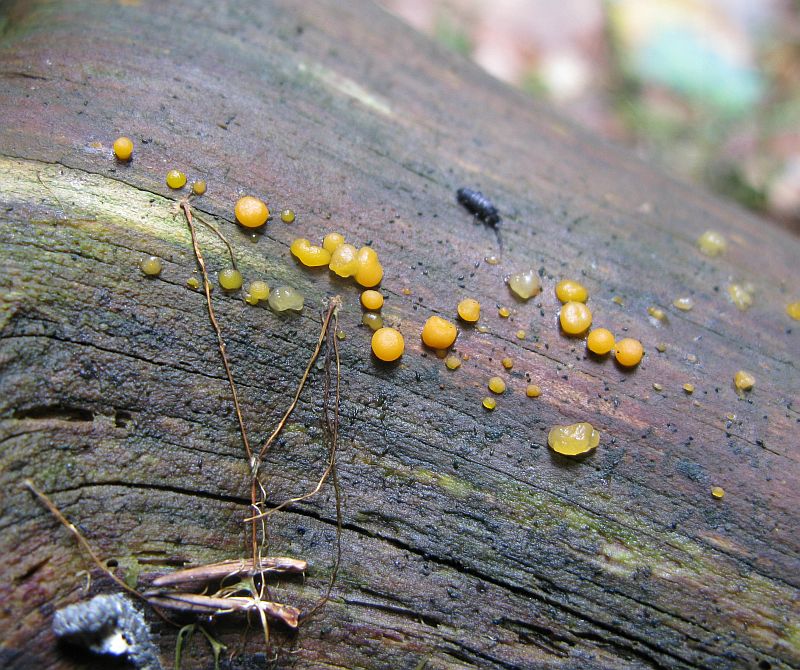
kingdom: Fungi
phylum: Basidiomycota
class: Dacrymycetes
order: Dacrymycetales
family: Dacrymycetaceae
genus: Dacrymyces
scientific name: Dacrymyces stillatus
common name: almindelig tåresvamp
